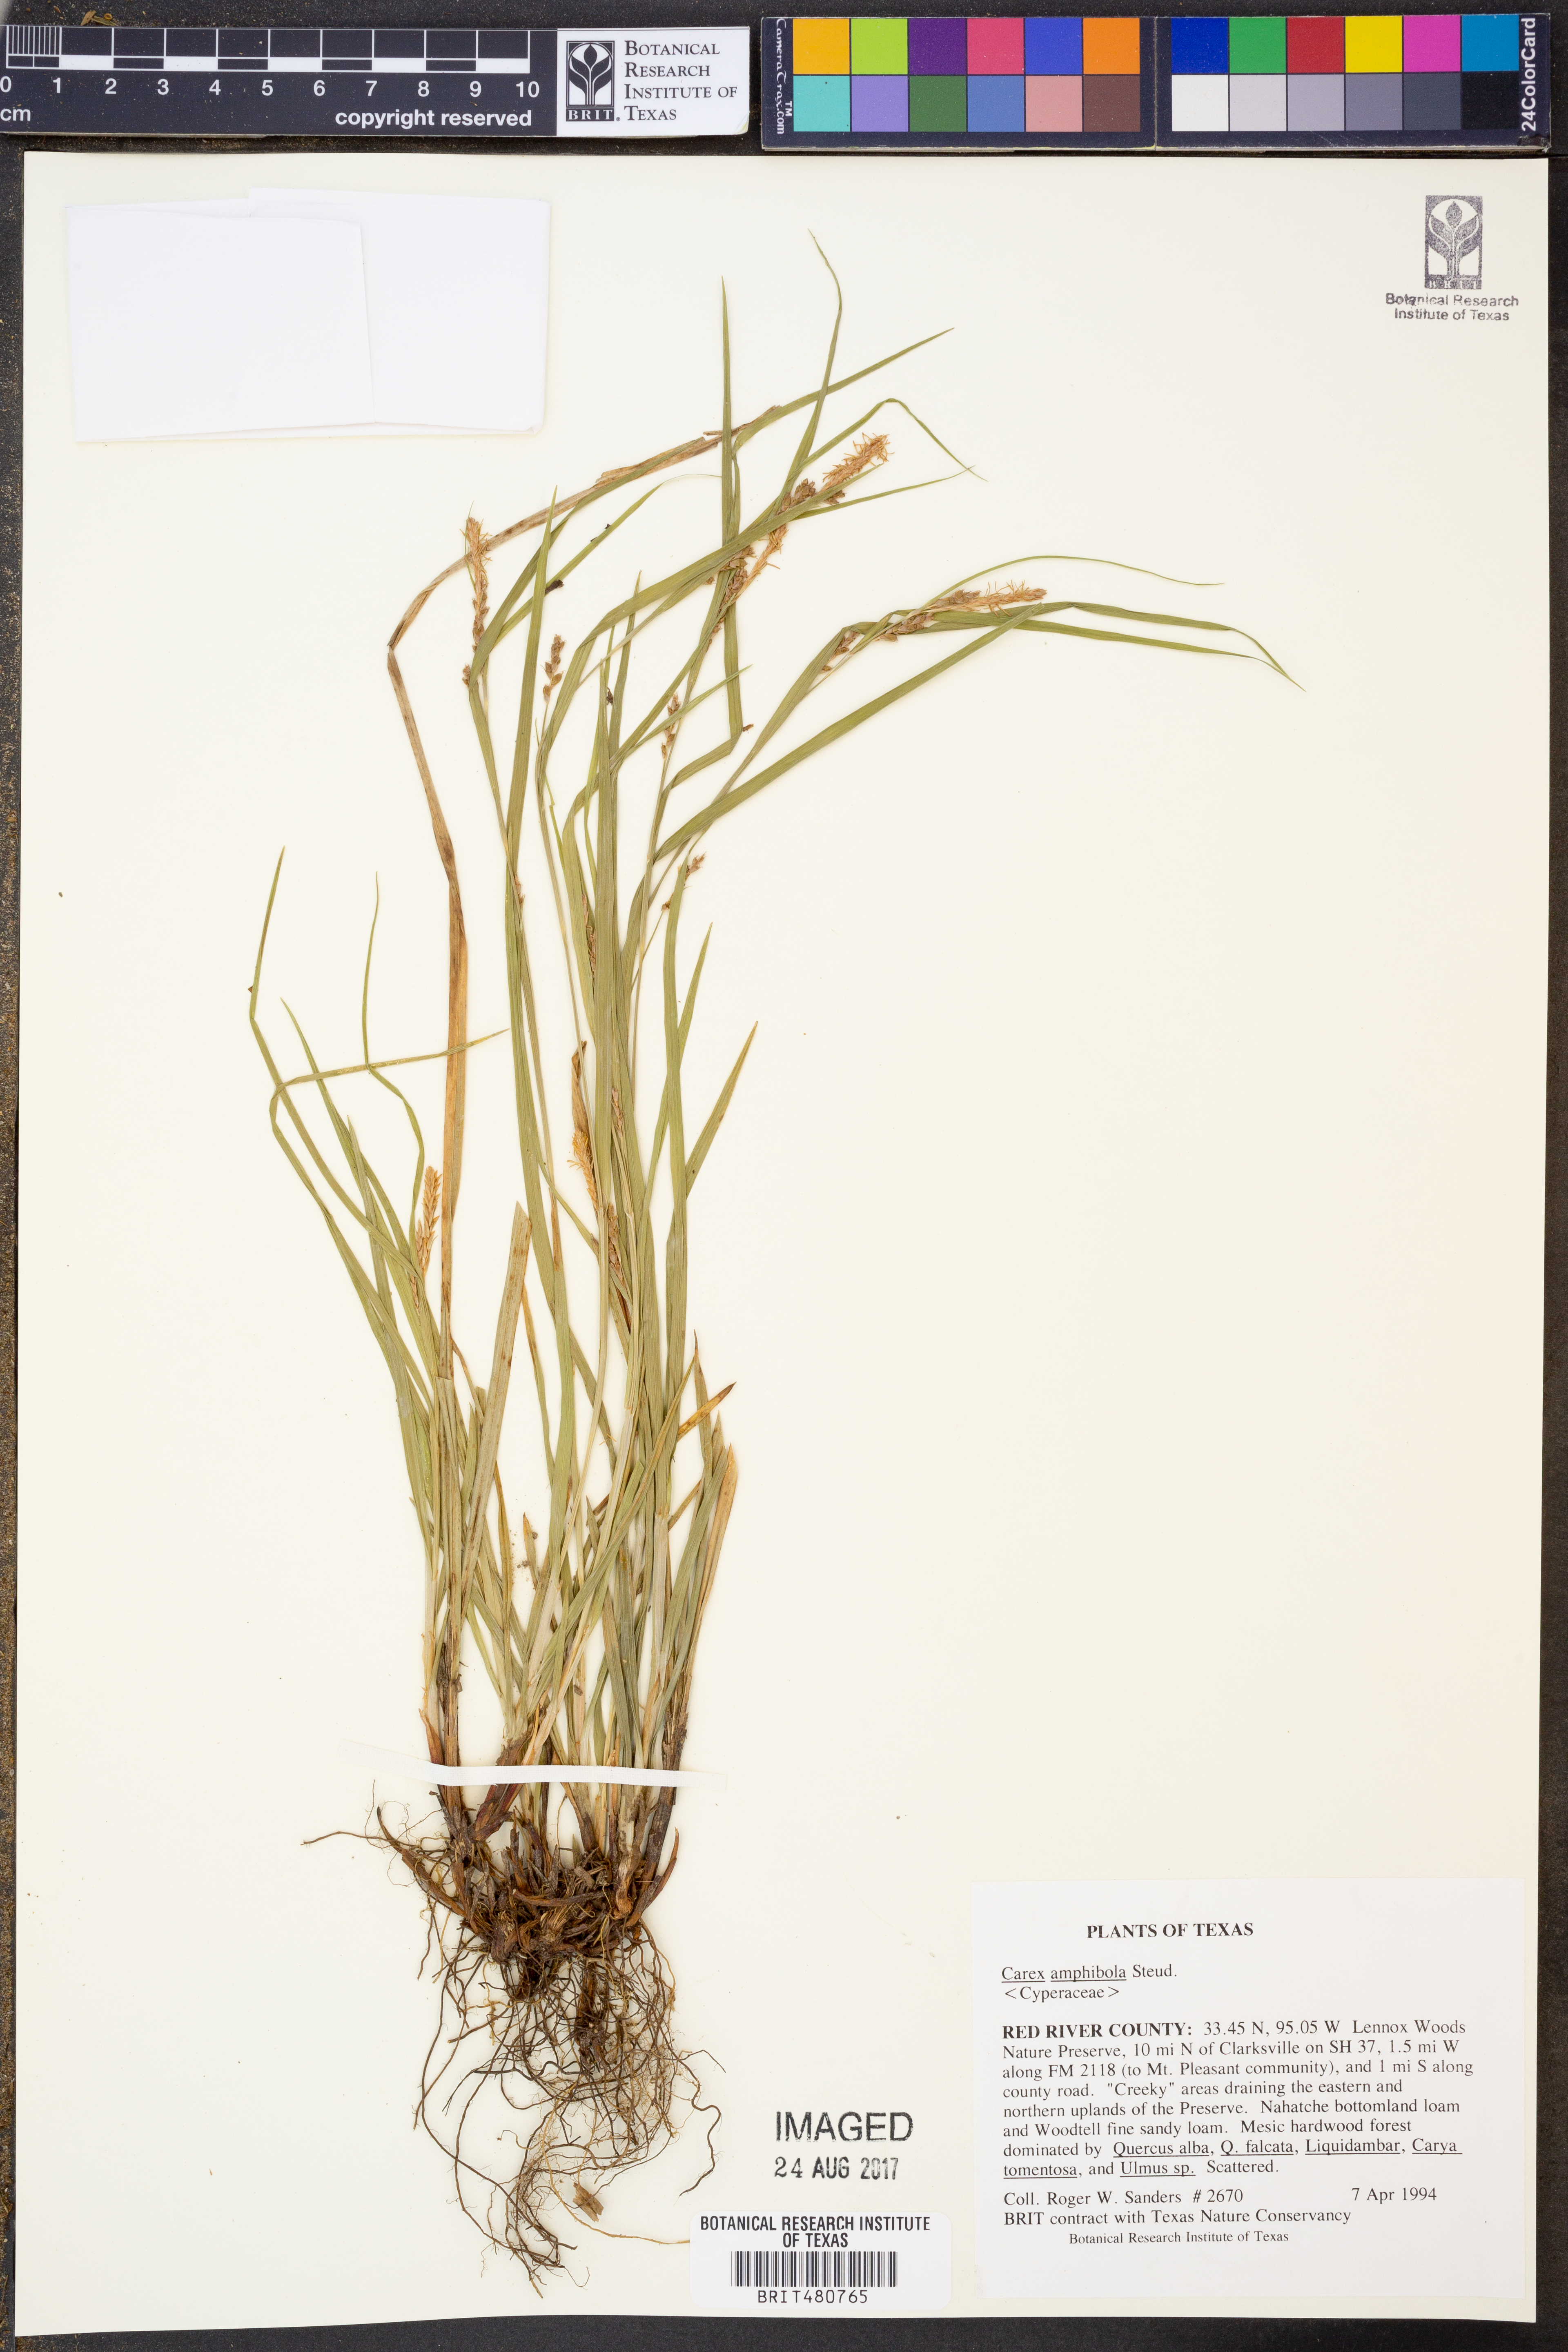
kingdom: Plantae
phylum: Tracheophyta
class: Liliopsida
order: Poales
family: Cyperaceae
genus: Carex
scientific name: Carex amphibola
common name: Amphibious sedge
